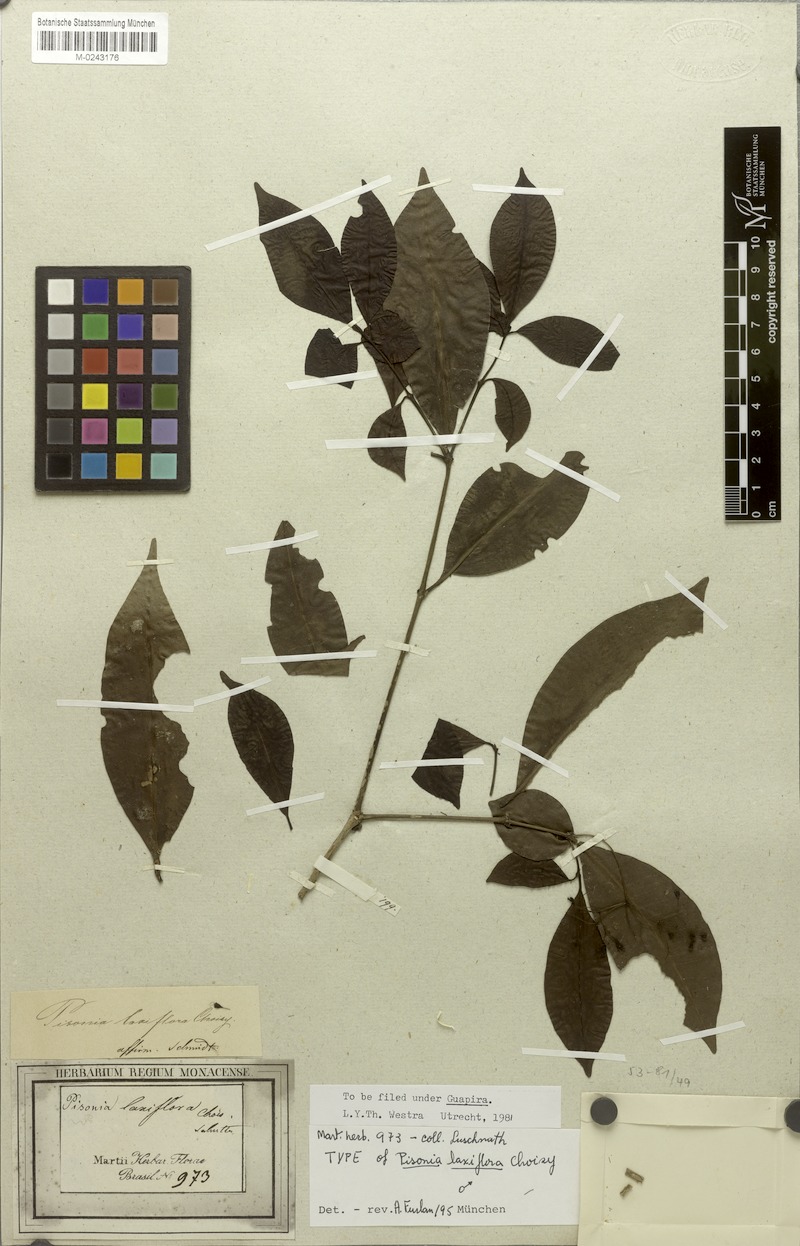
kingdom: Plantae
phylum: Tracheophyta
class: Magnoliopsida
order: Caryophyllales
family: Nyctaginaceae
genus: Guapira
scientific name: Guapira laxiflora
